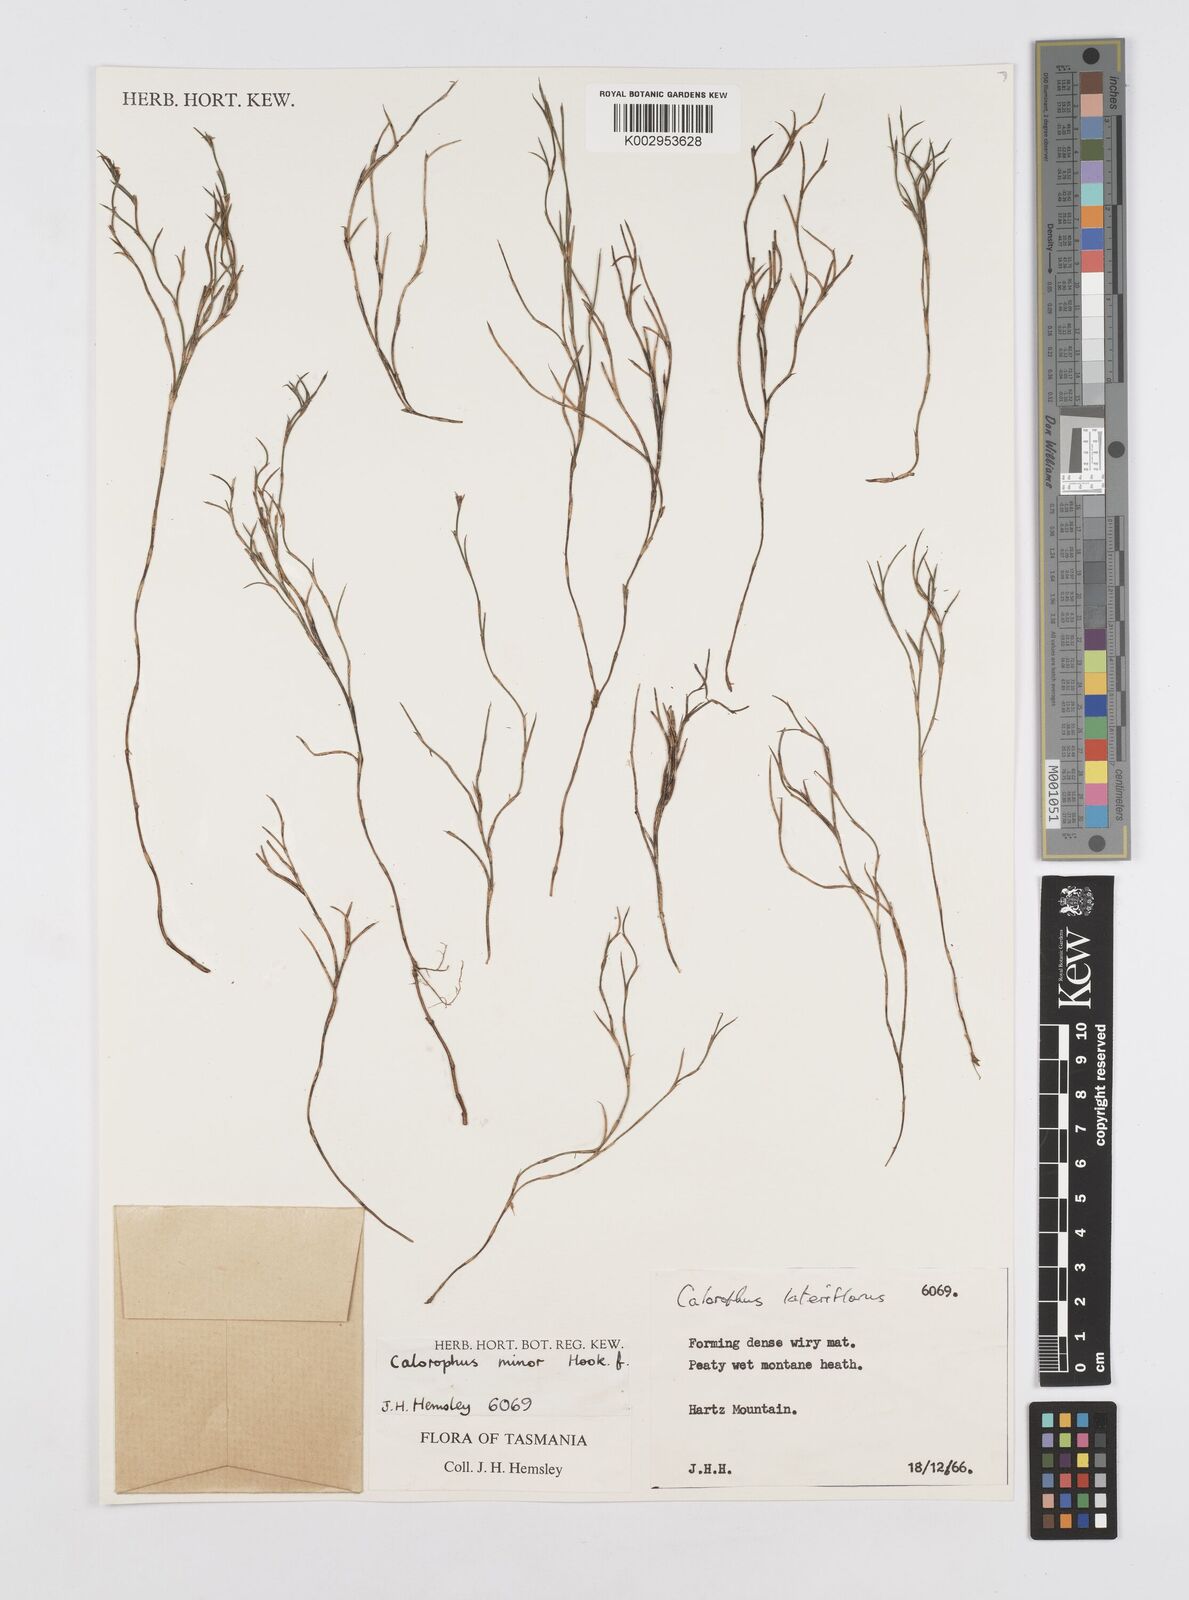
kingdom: Plantae
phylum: Tracheophyta
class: Liliopsida
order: Poales
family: Restionaceae
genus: Empodisma
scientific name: Empodisma minus
